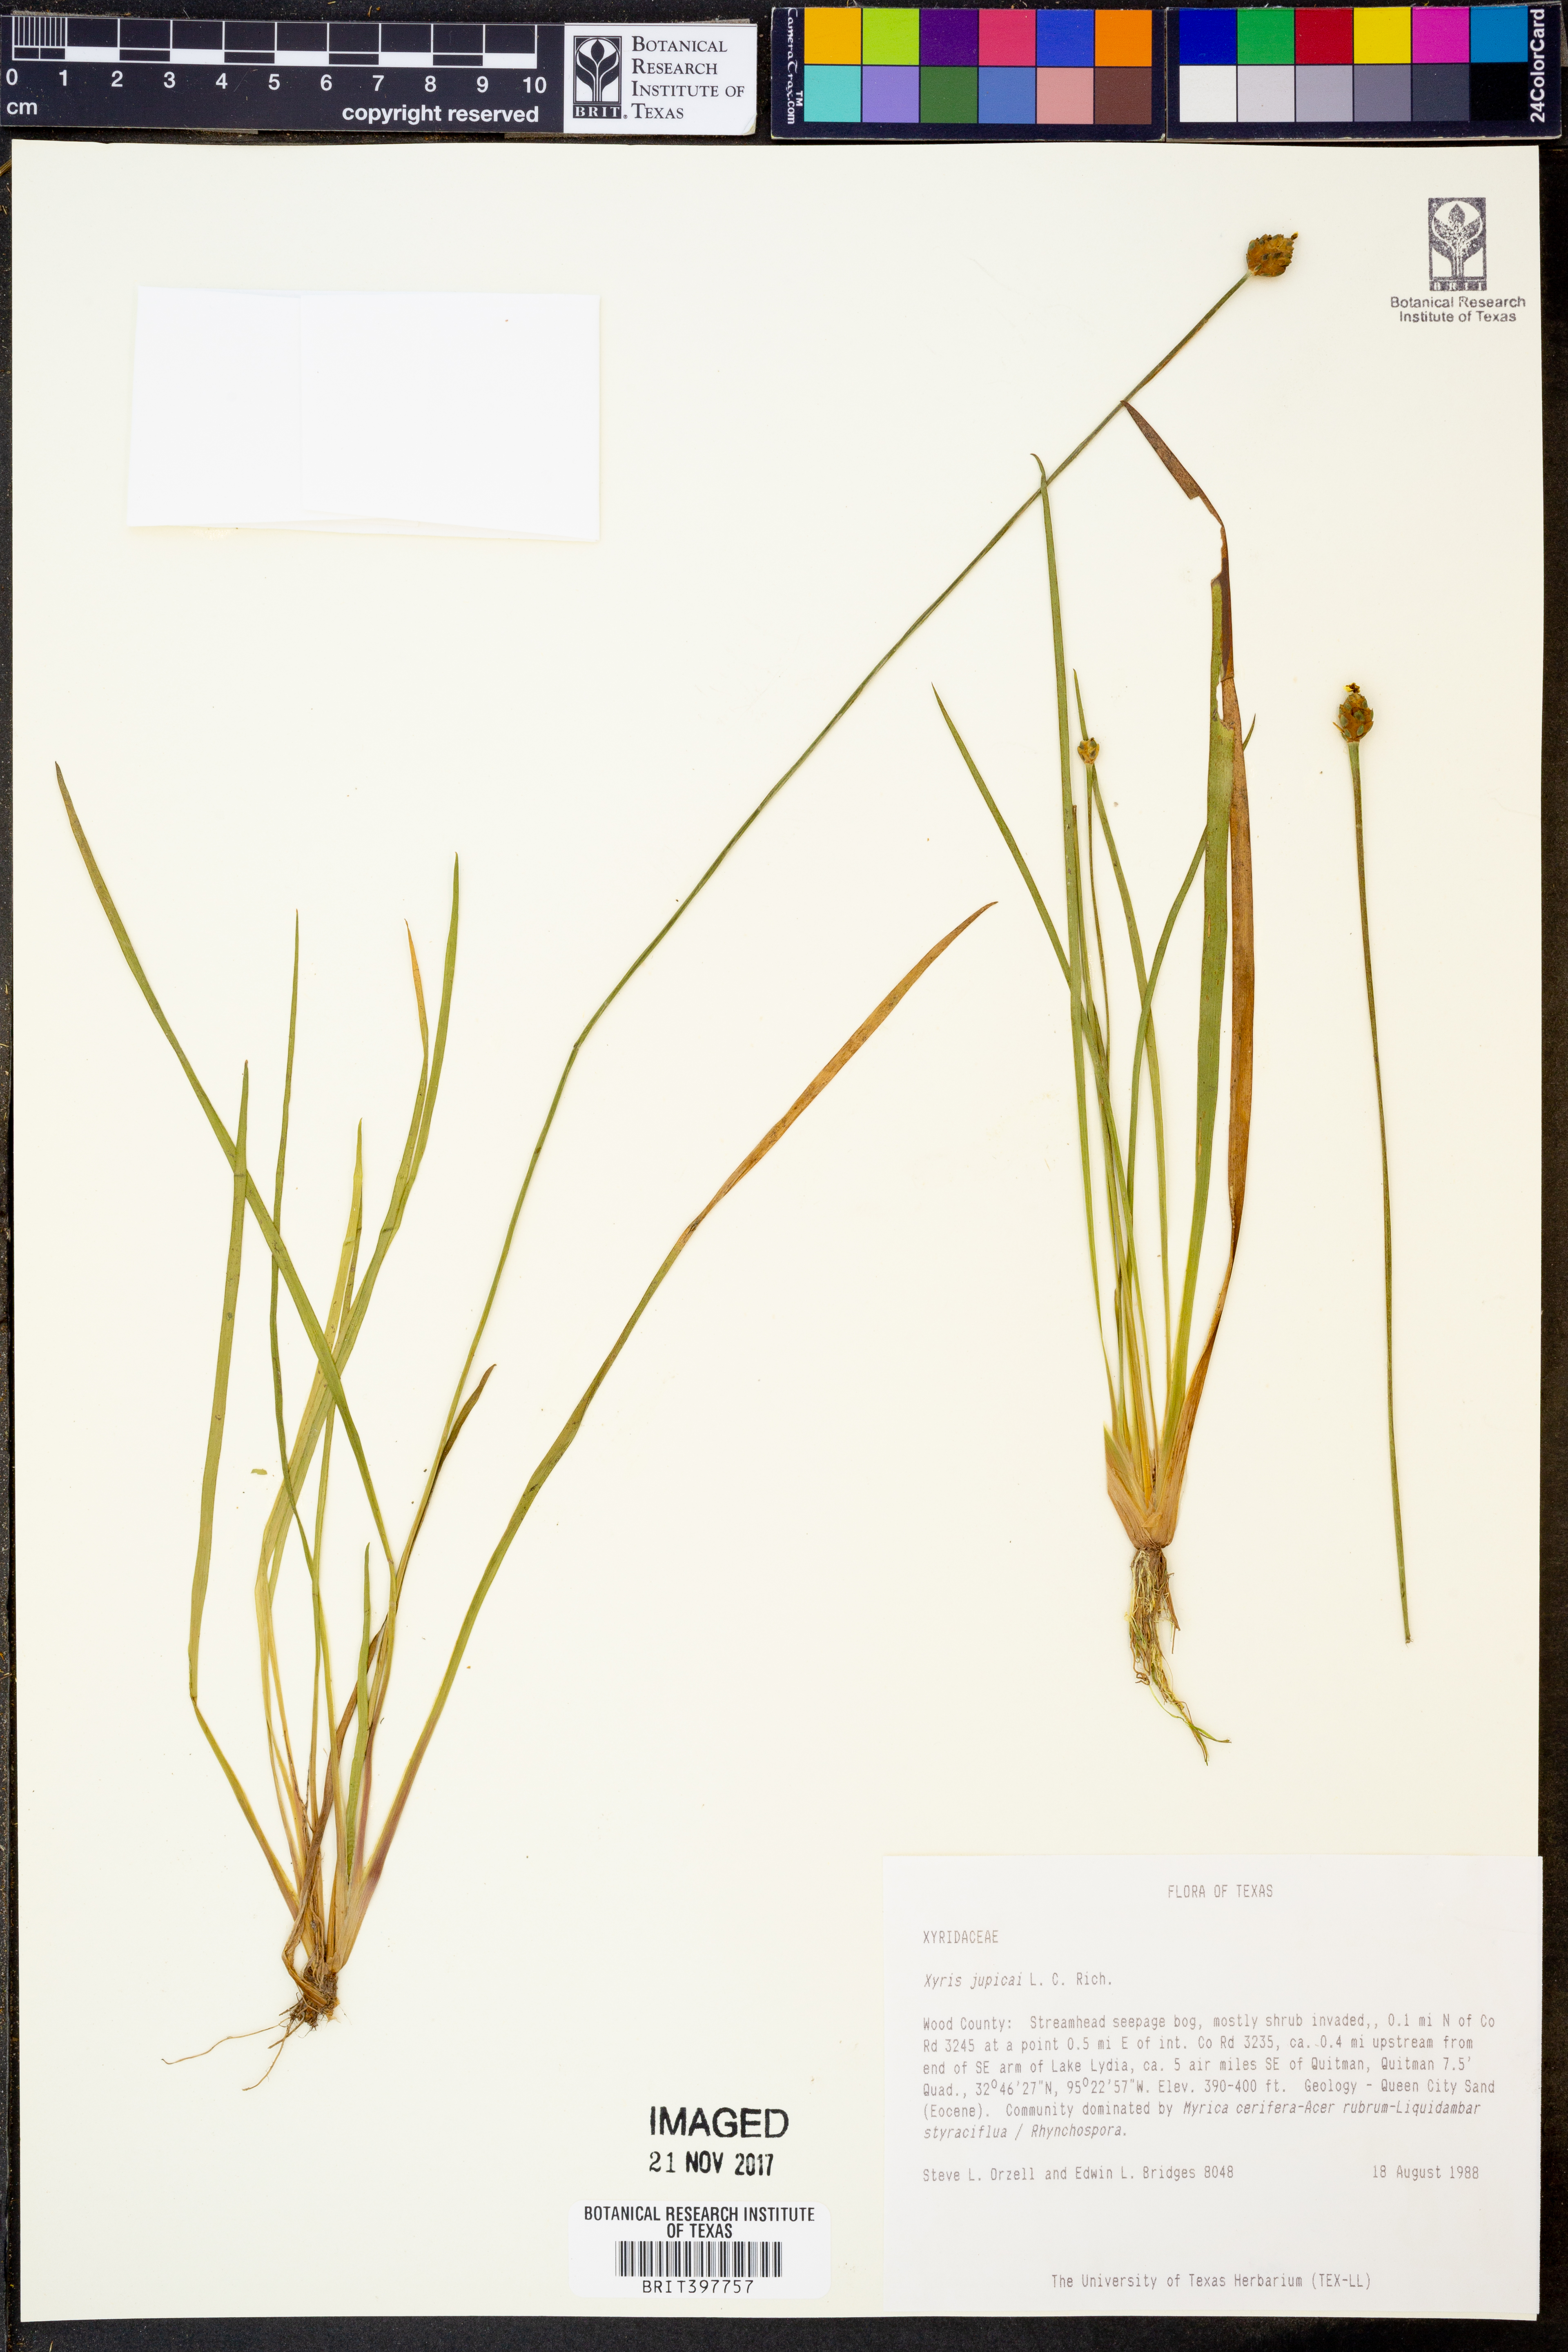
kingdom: Plantae
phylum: Tracheophyta
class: Liliopsida
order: Poales
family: Xyridaceae
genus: Xyris
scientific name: Xyris jupicai
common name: Richard's yelloweyed grass
